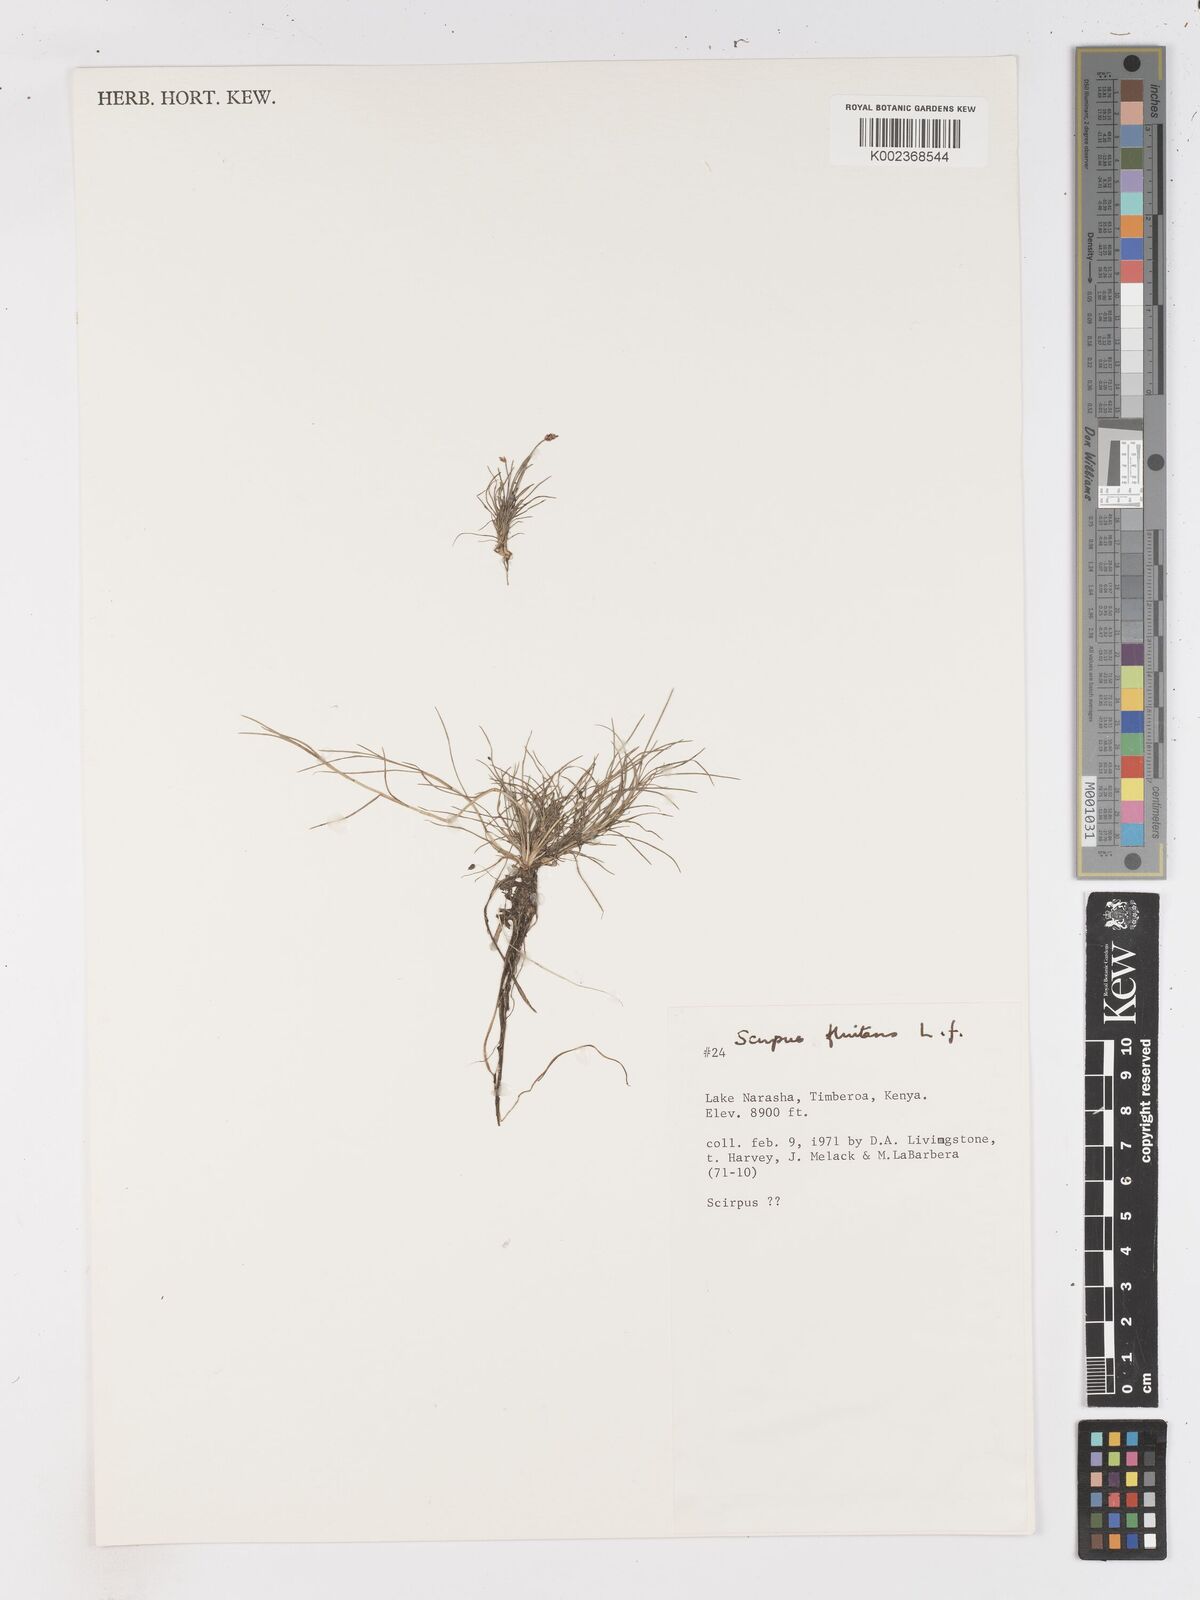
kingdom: Plantae
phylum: Tracheophyta
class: Liliopsida
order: Poales
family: Cyperaceae
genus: Isolepis
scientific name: Isolepis fluitans
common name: Floating club-rush
